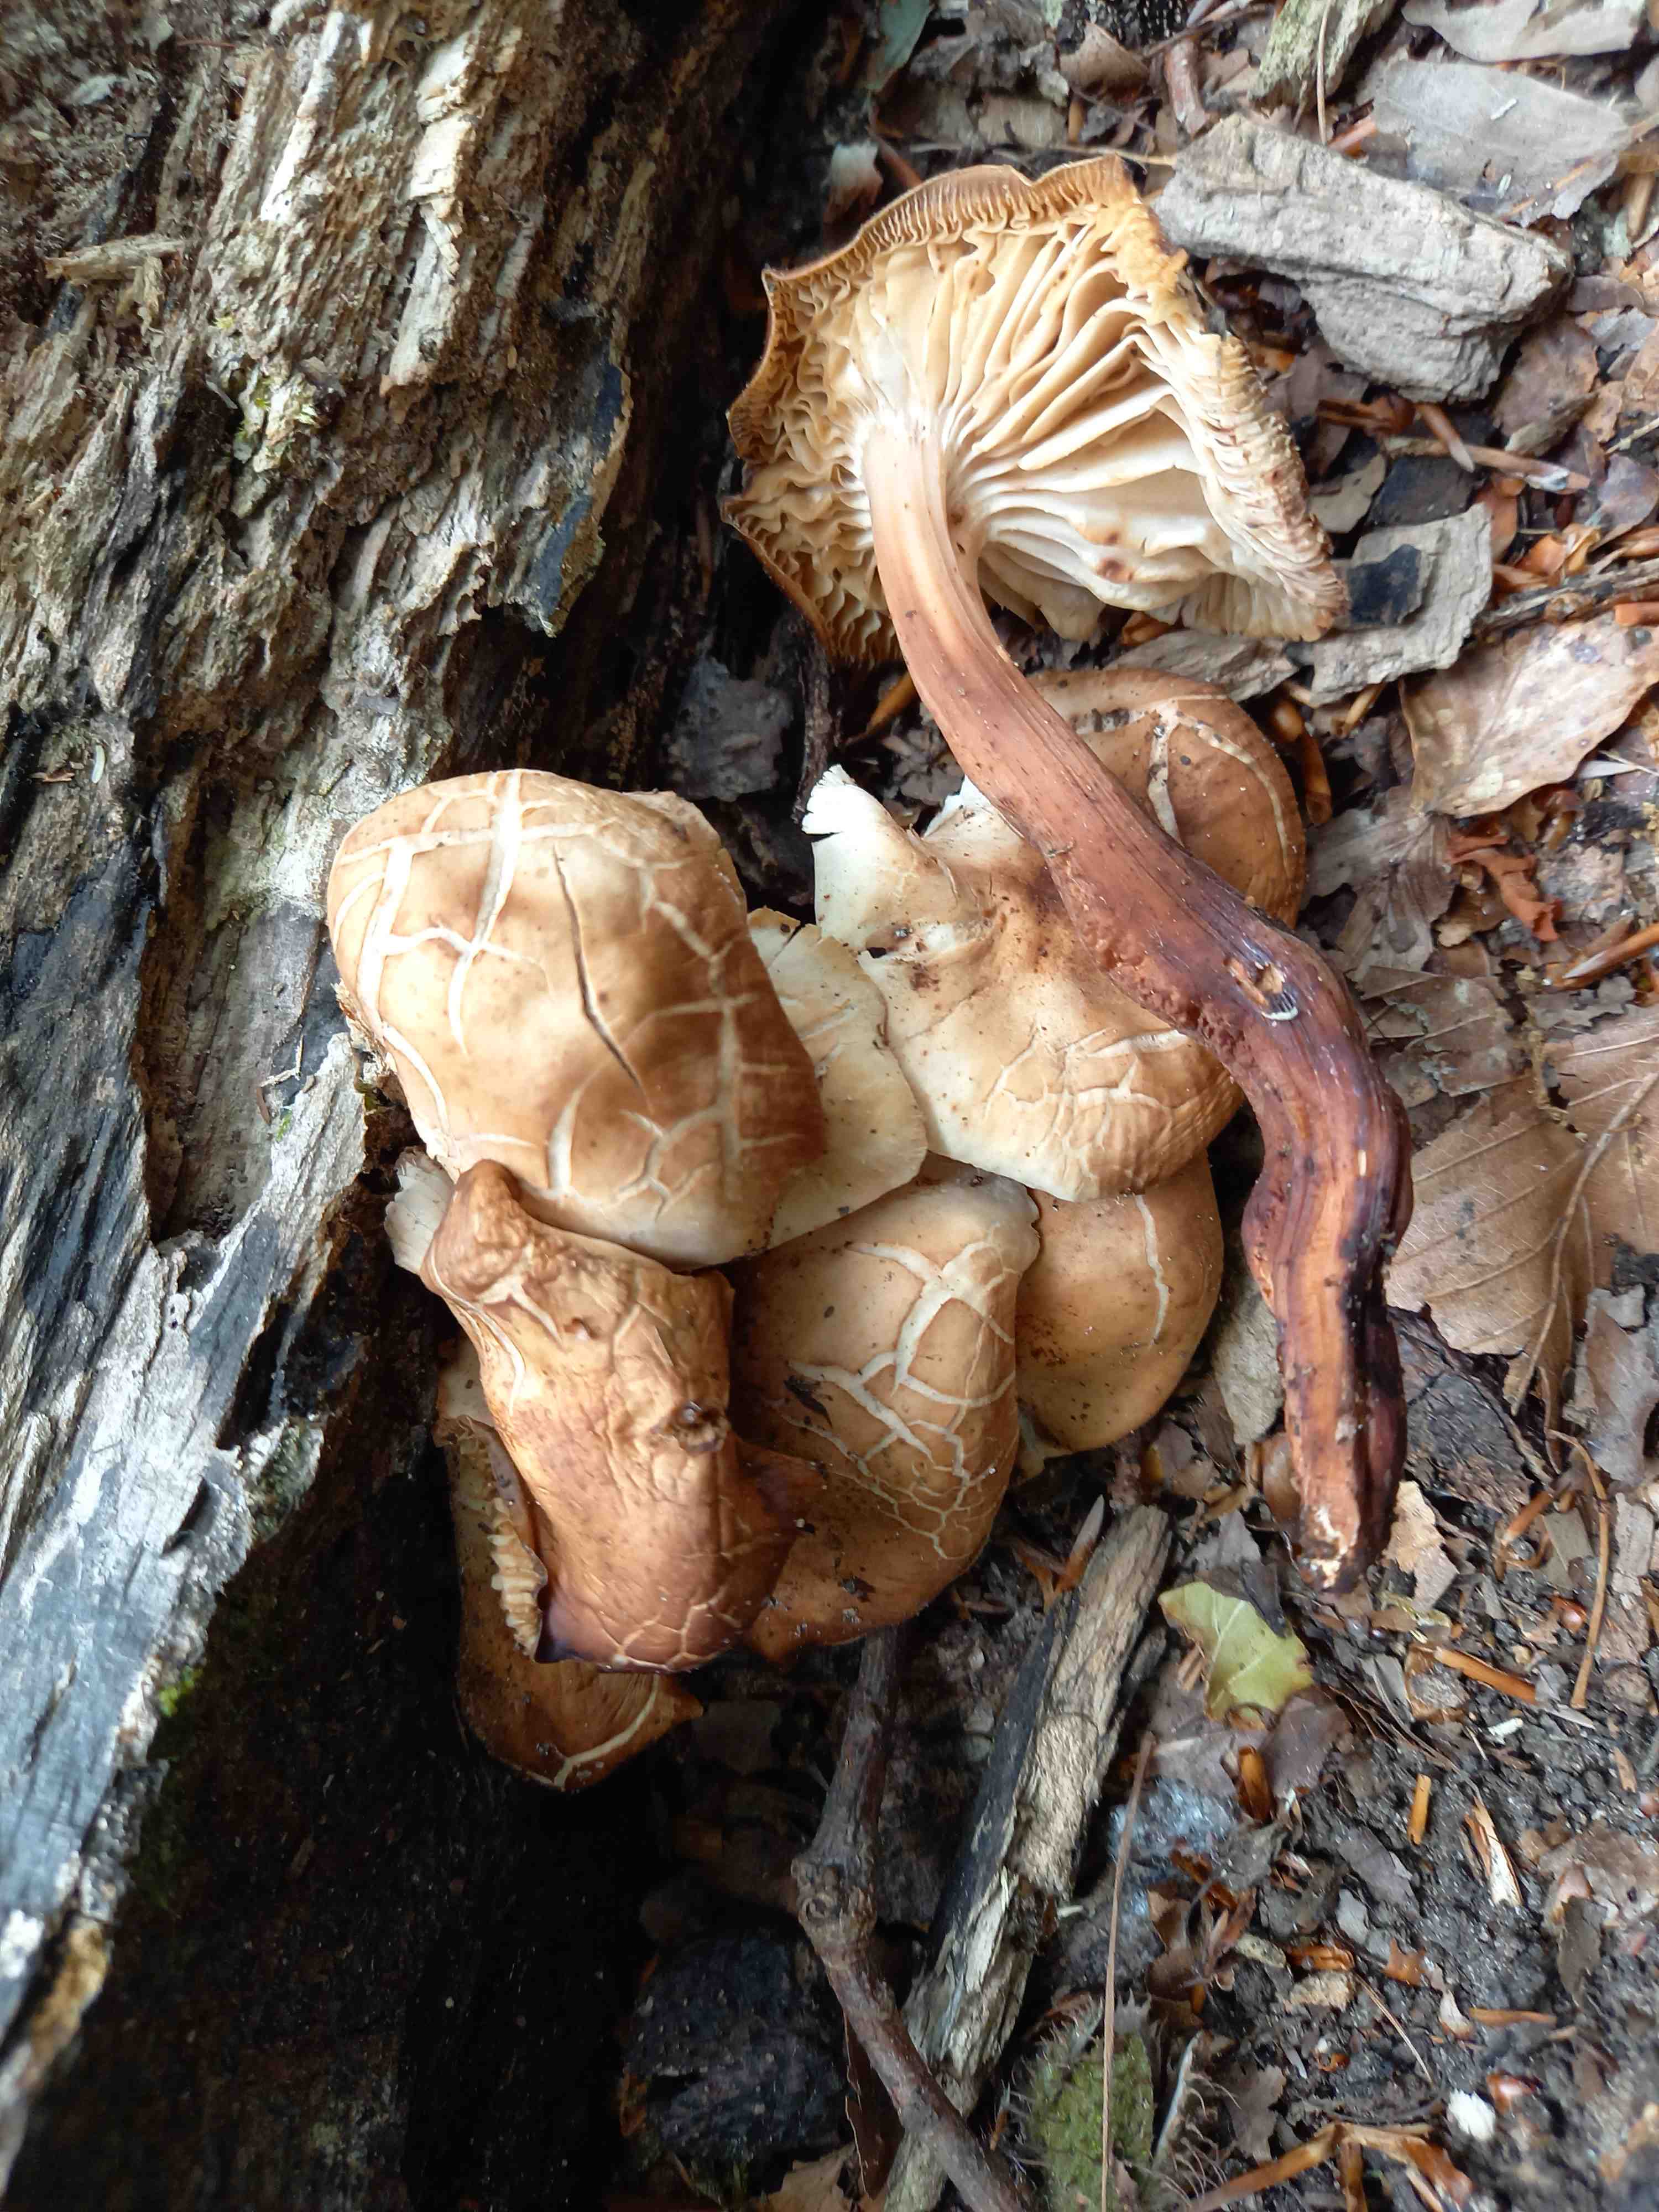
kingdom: Fungi
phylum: Basidiomycota
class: Agaricomycetes
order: Agaricales
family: Omphalotaceae
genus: Gymnopus
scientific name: Gymnopus fusipes
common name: tenstokket fladhat
